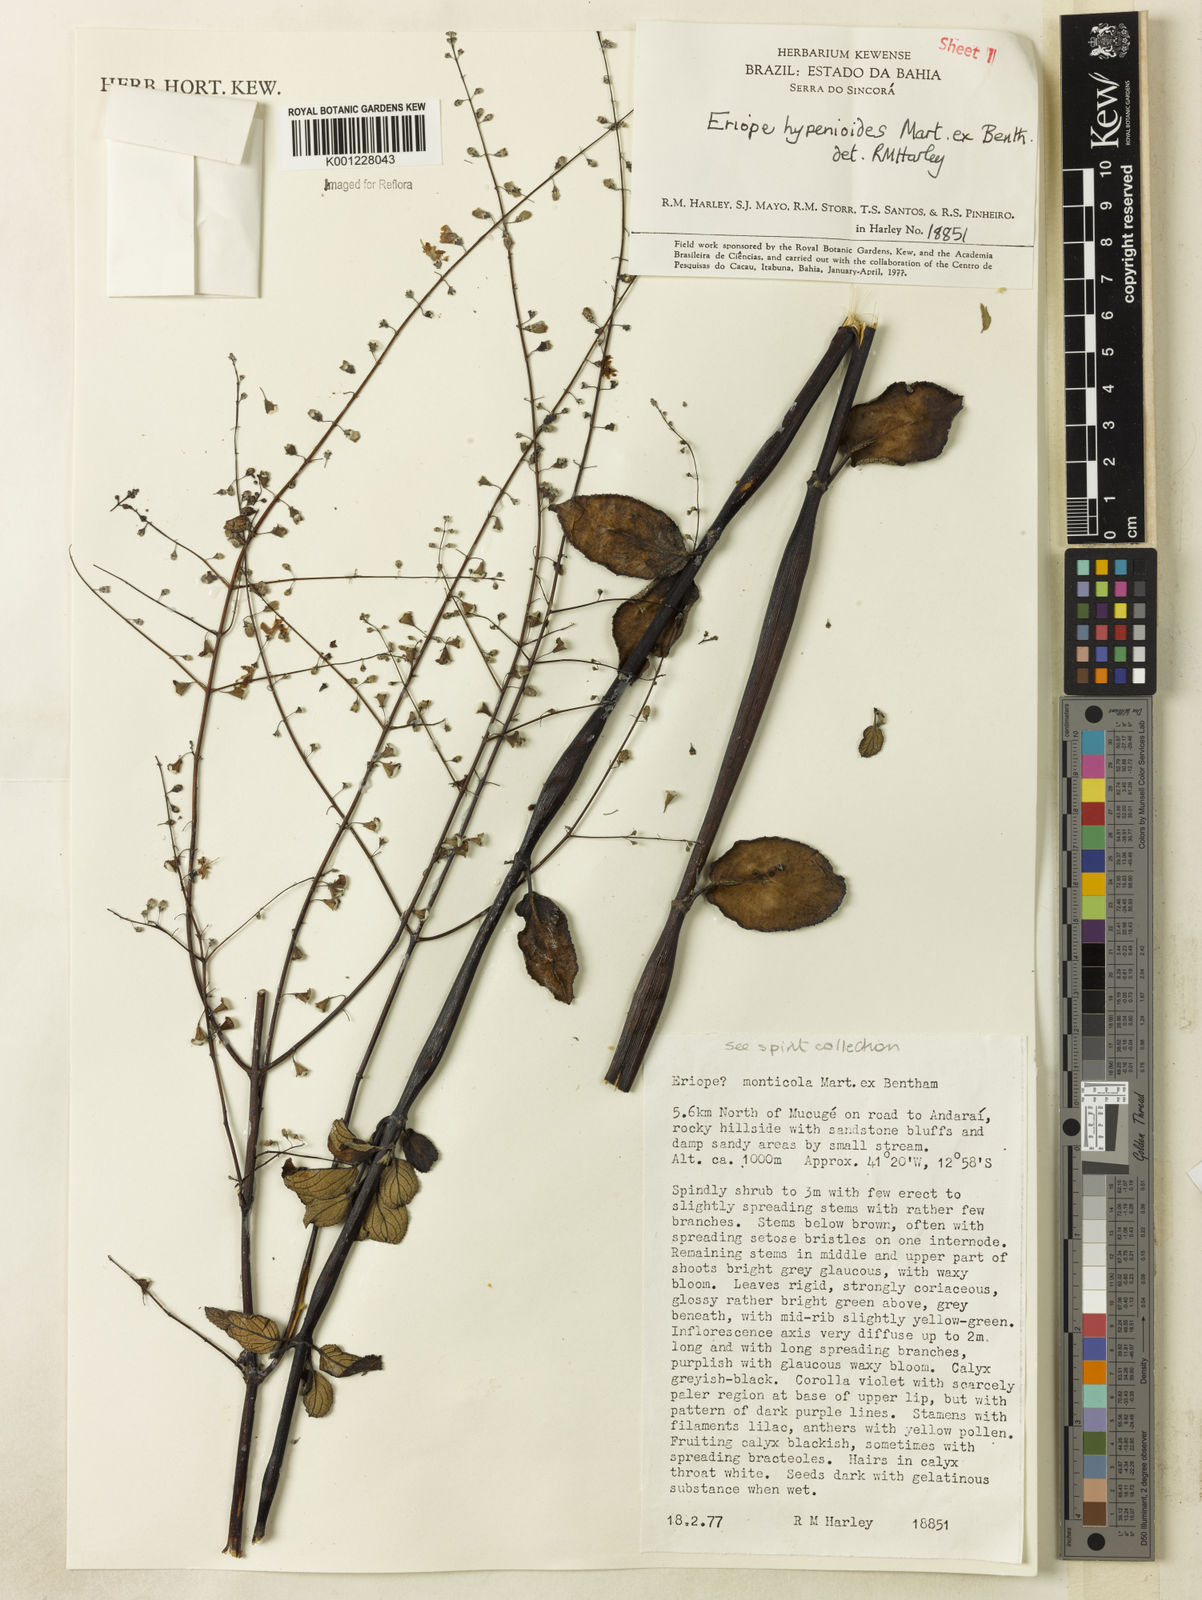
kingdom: Plantae
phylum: Tracheophyta
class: Magnoliopsida
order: Lamiales
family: Lamiaceae
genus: Eriope
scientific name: Eriope hypenioides
